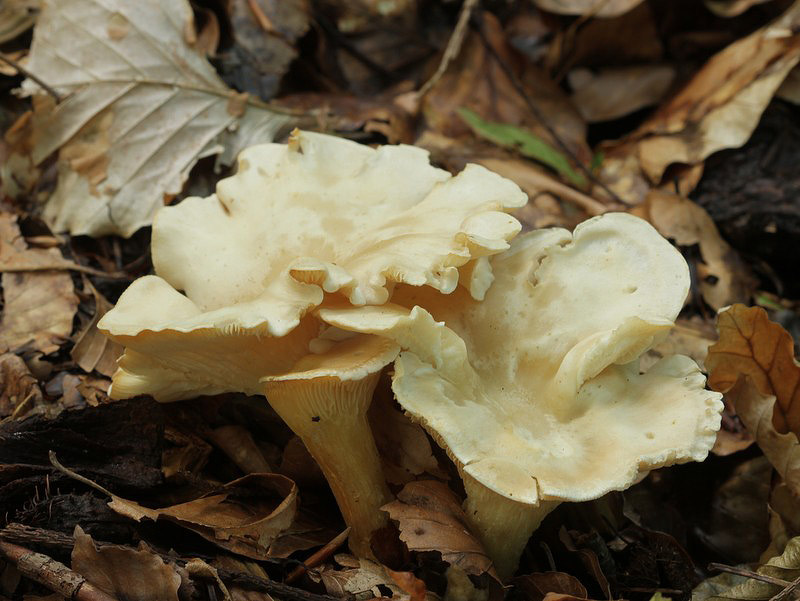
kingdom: Fungi
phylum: Basidiomycota
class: Agaricomycetes
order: Agaricales
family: Tricholomataceae
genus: Infundibulicybe
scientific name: Infundibulicybe gibba
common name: almindelig tragthat
